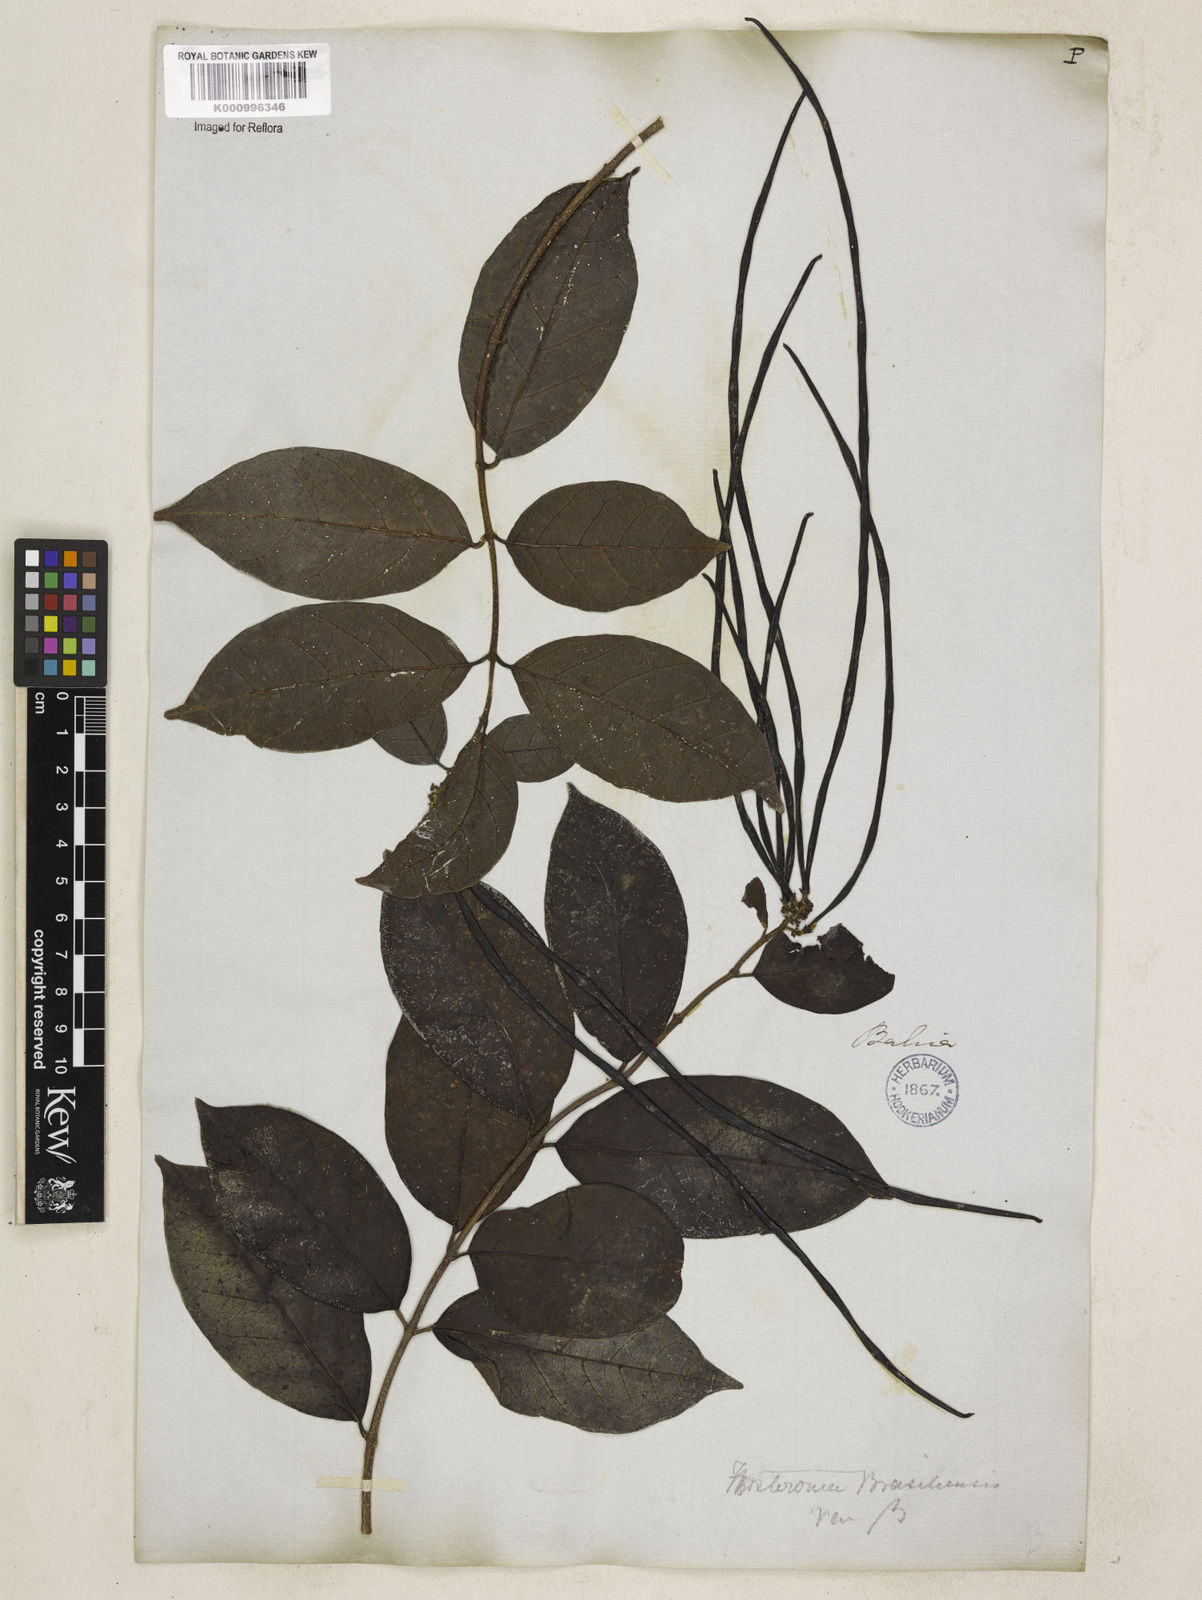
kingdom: Plantae
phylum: Tracheophyta
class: Magnoliopsida
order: Gentianales
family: Apocynaceae
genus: Forsteronia
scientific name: Forsteronia leptocarpa
